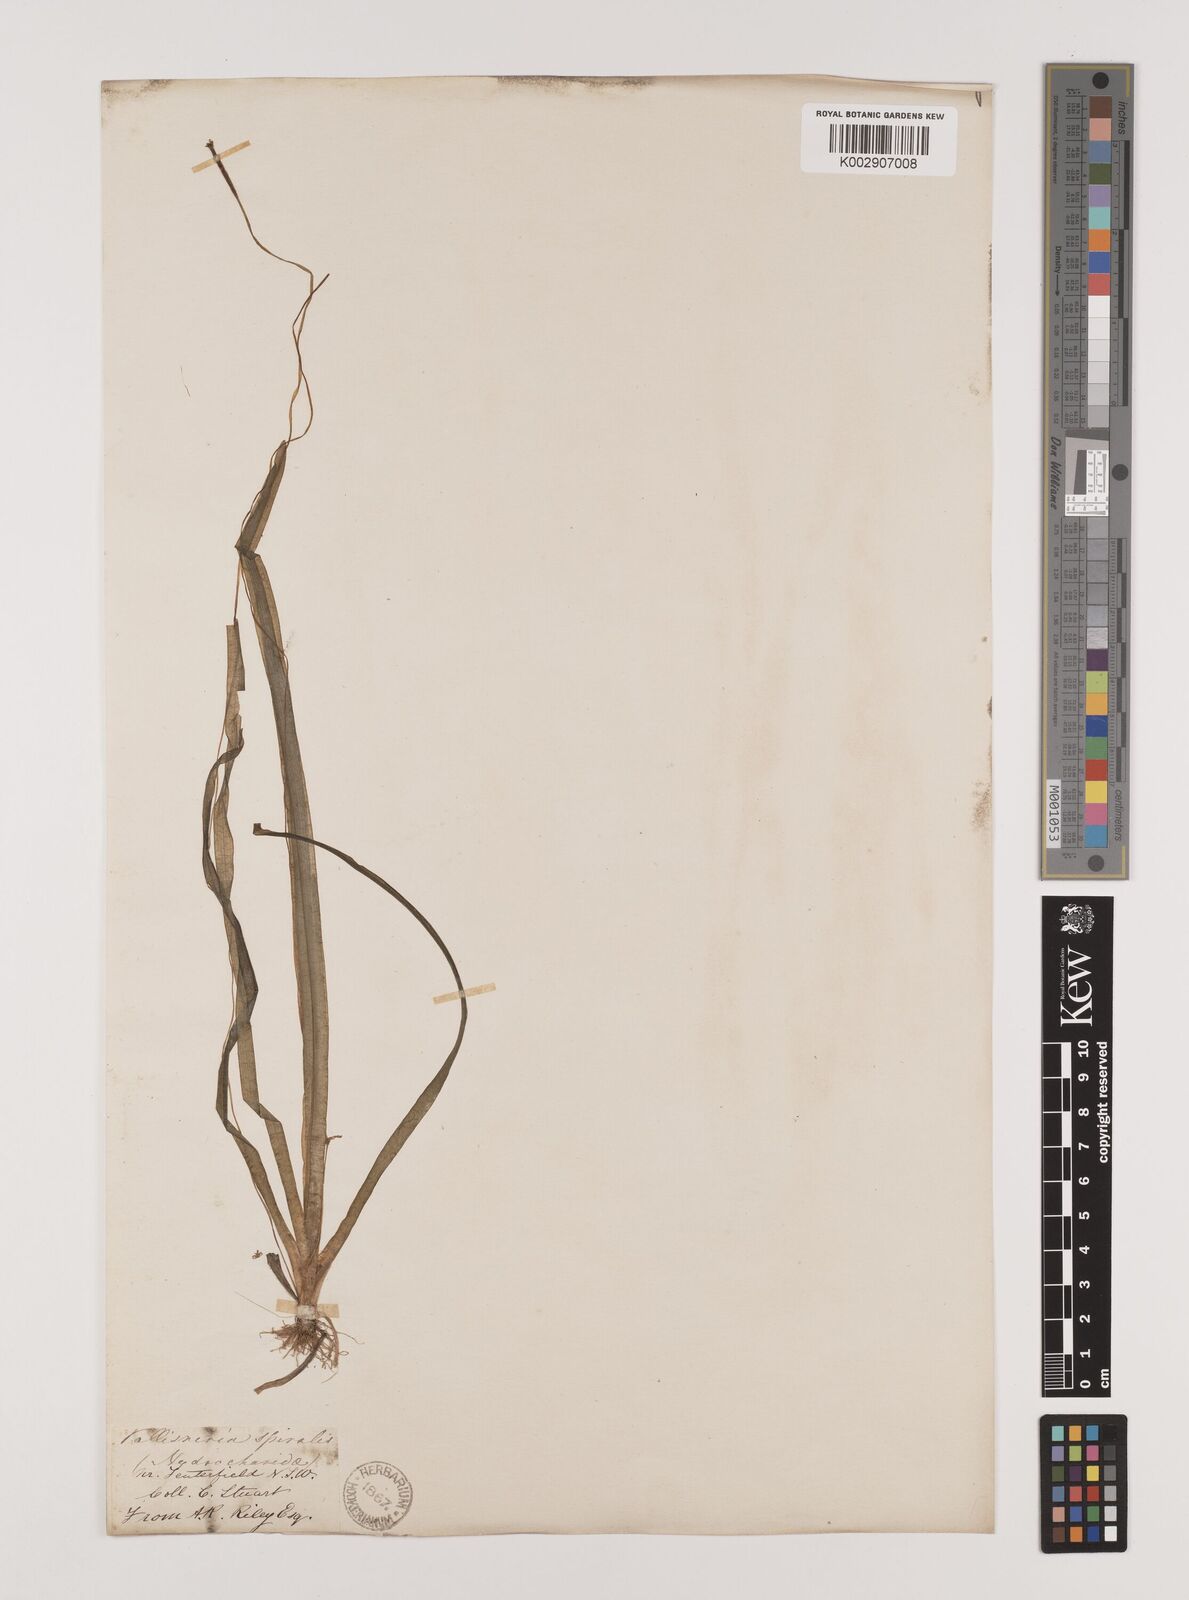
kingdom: Plantae
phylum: Tracheophyta
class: Liliopsida
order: Alismatales
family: Hydrocharitaceae
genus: Vallisneria
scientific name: Vallisneria spiralis
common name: Tapegrass
